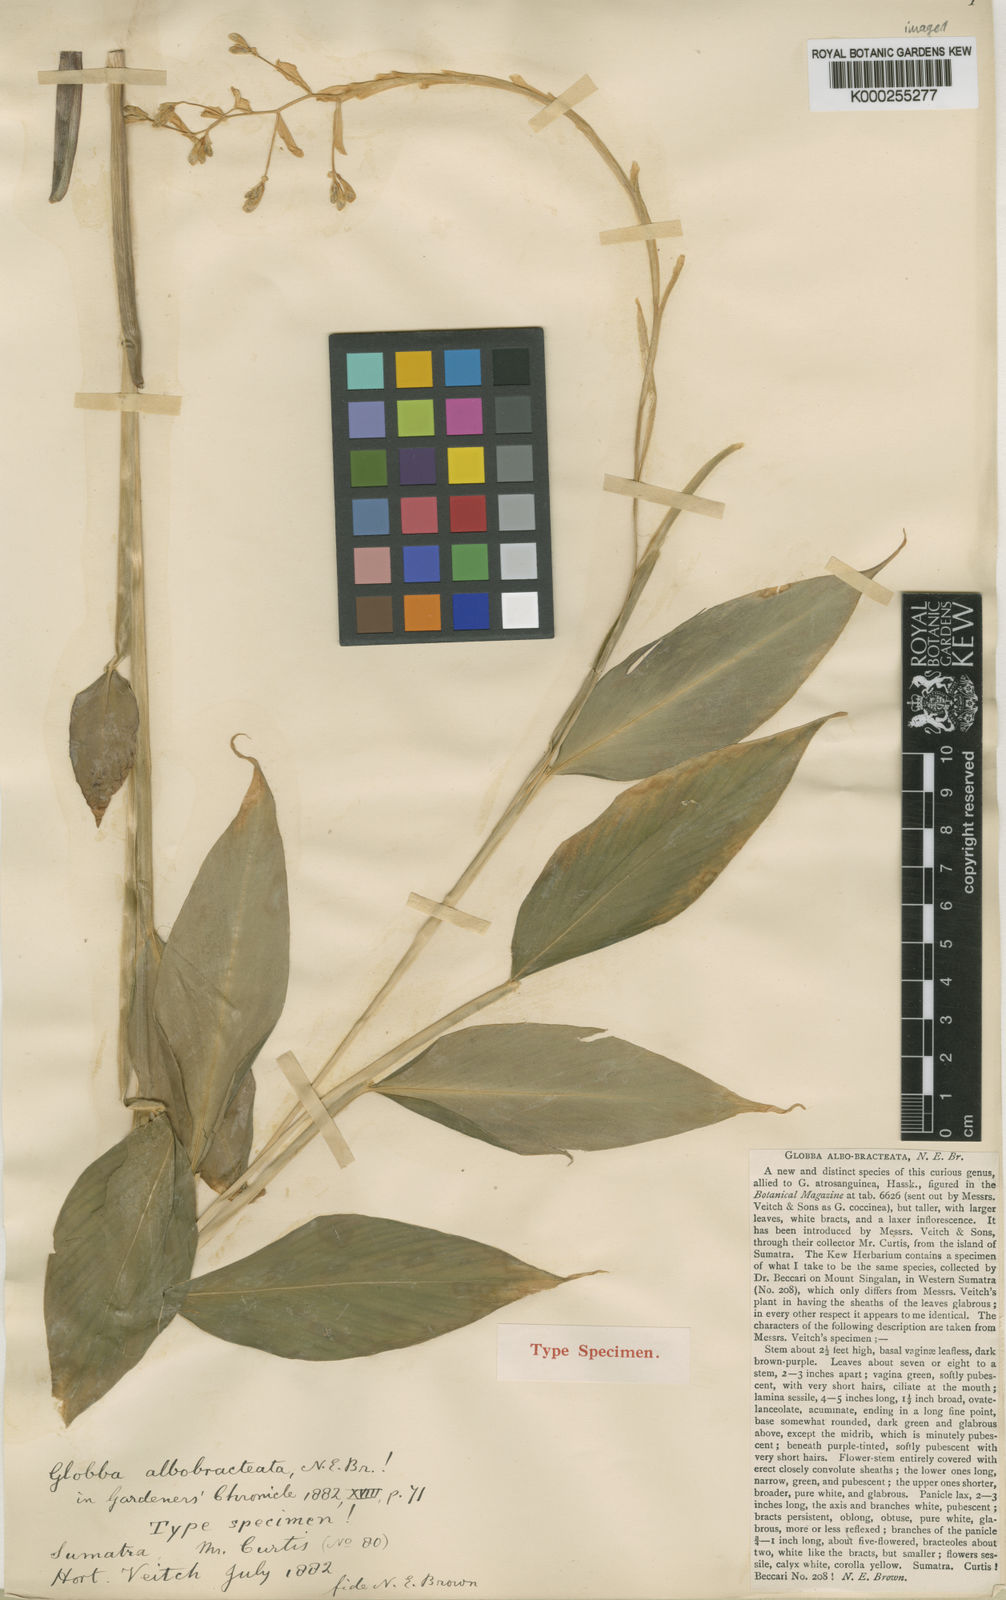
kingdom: Plantae
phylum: Tracheophyta
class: Liliopsida
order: Zingiberales
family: Zingiberaceae
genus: Globba
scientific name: Globba albobracteata
